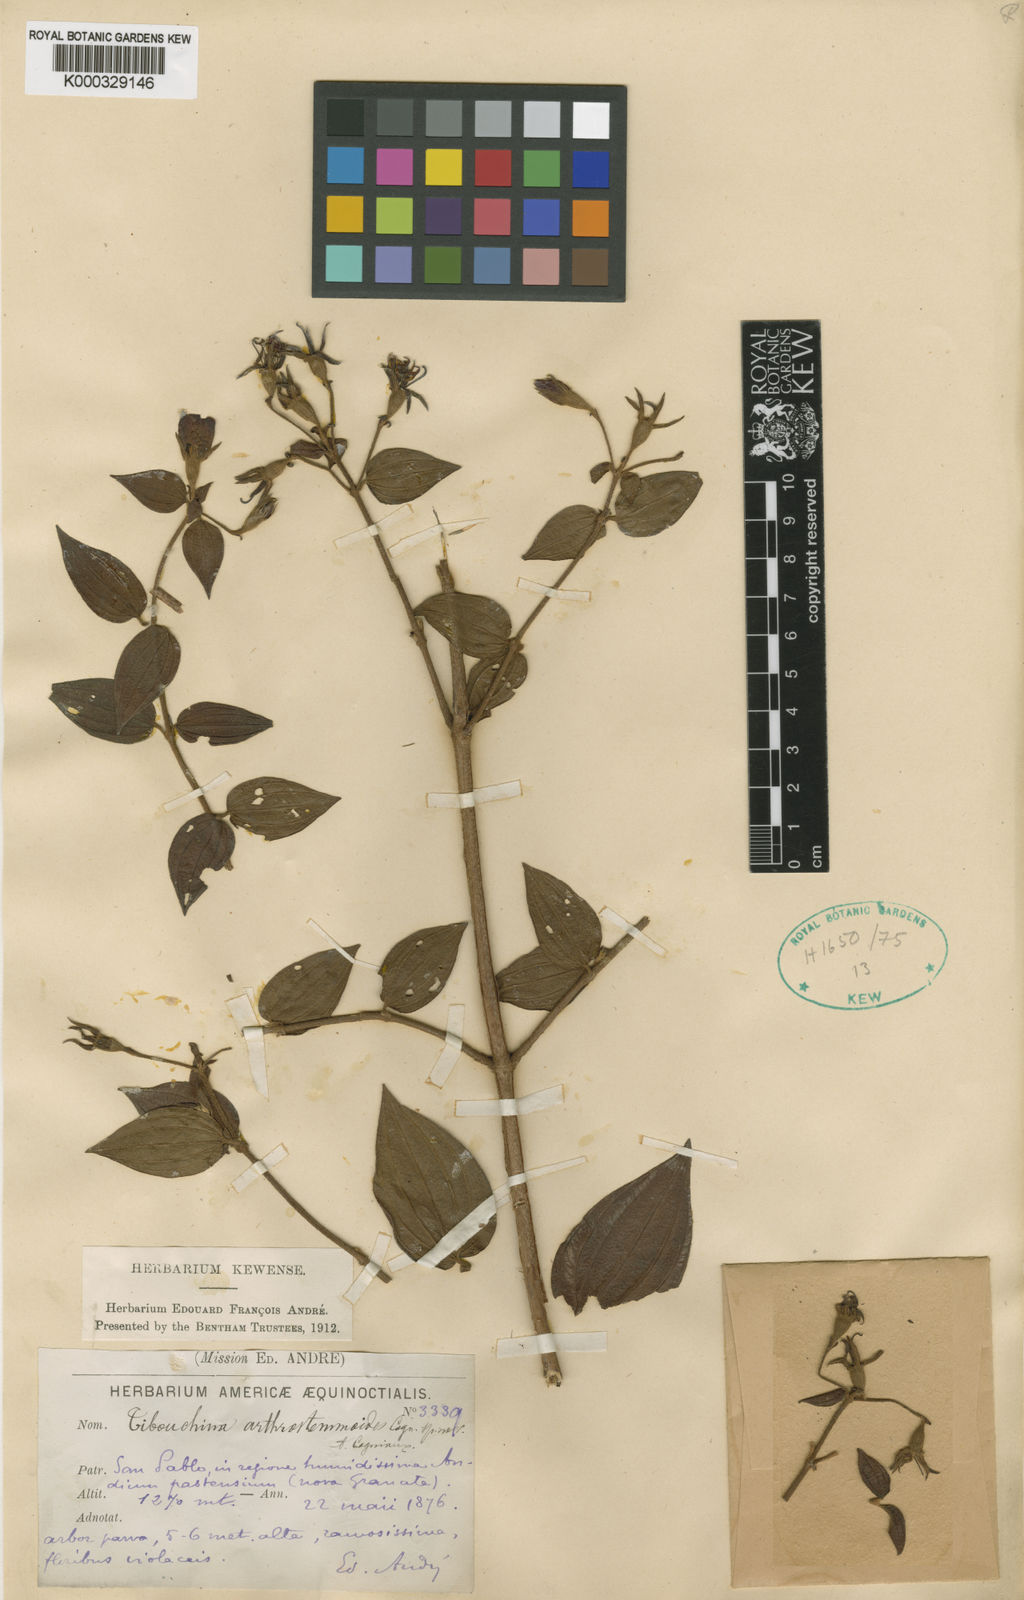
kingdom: Plantae
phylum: Tracheophyta
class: Magnoliopsida
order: Myrtales
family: Melastomataceae
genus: Chaetogastra
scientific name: Chaetogastra arthrostemmoides
